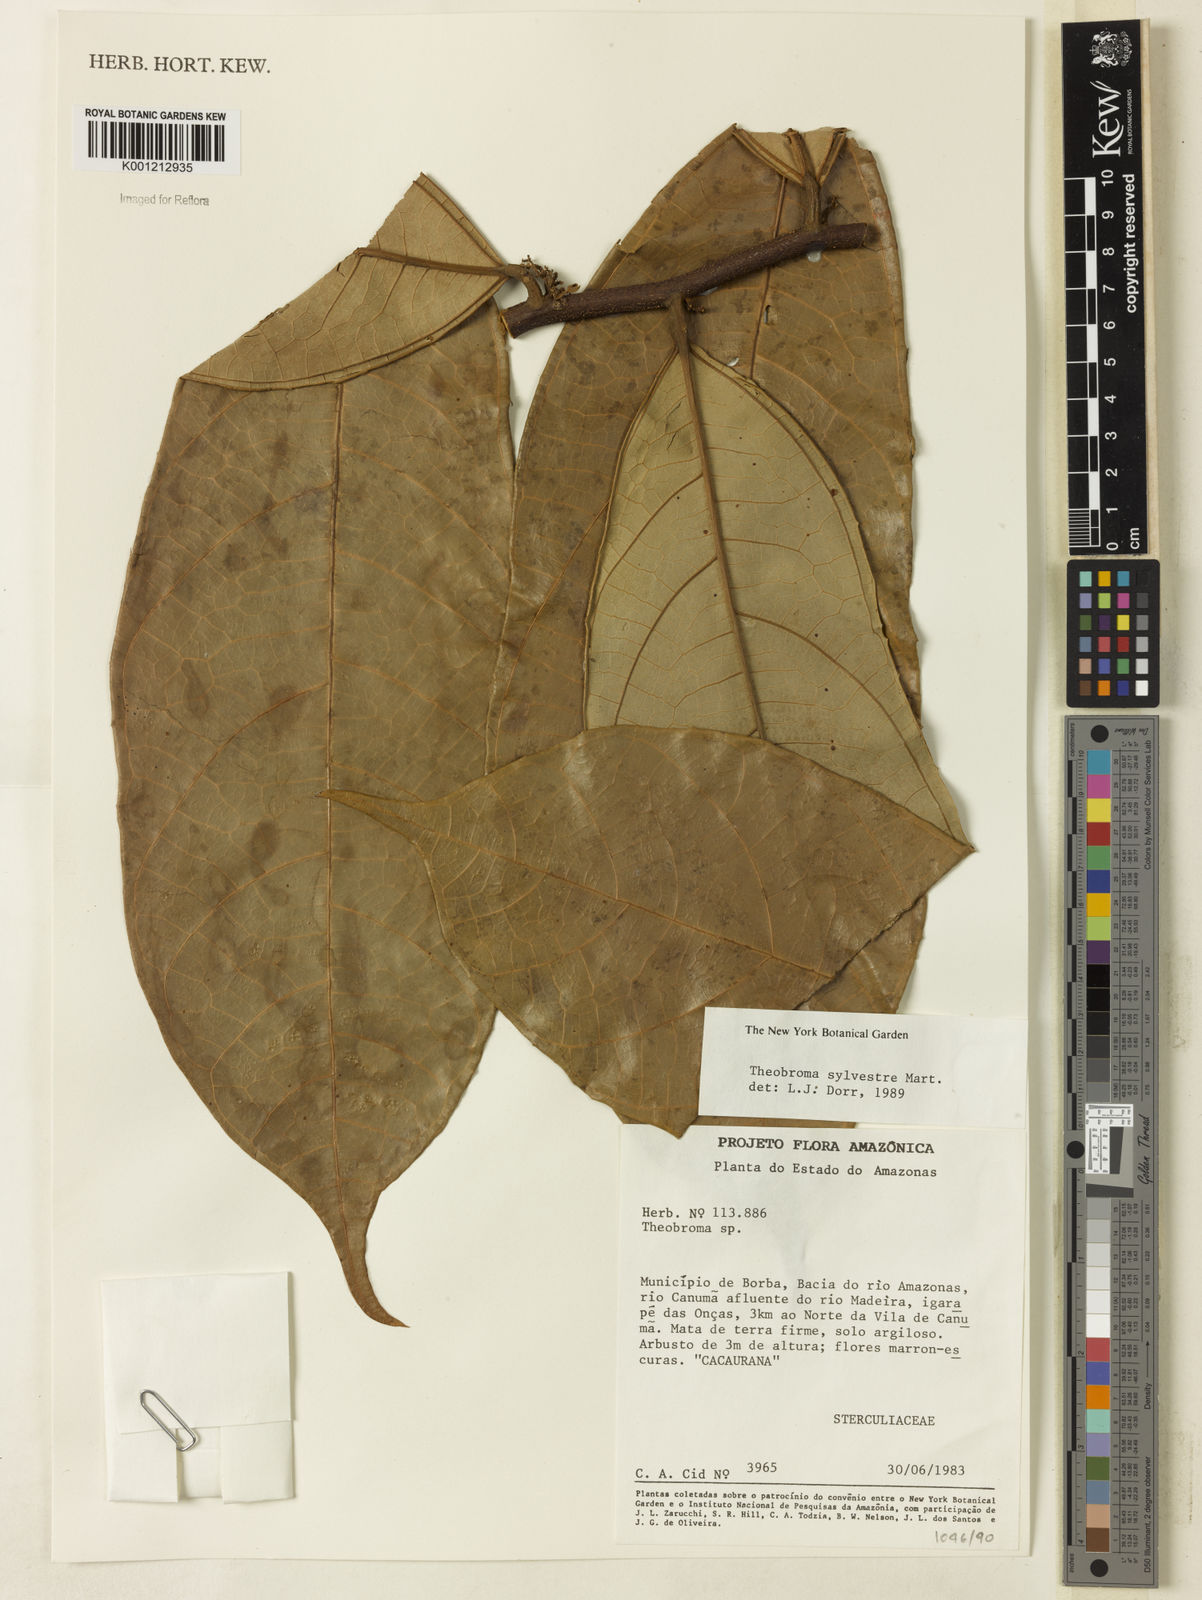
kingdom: Plantae
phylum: Tracheophyta
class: Magnoliopsida
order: Malvales
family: Malvaceae
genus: Theobroma
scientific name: Theobroma sylvestre
